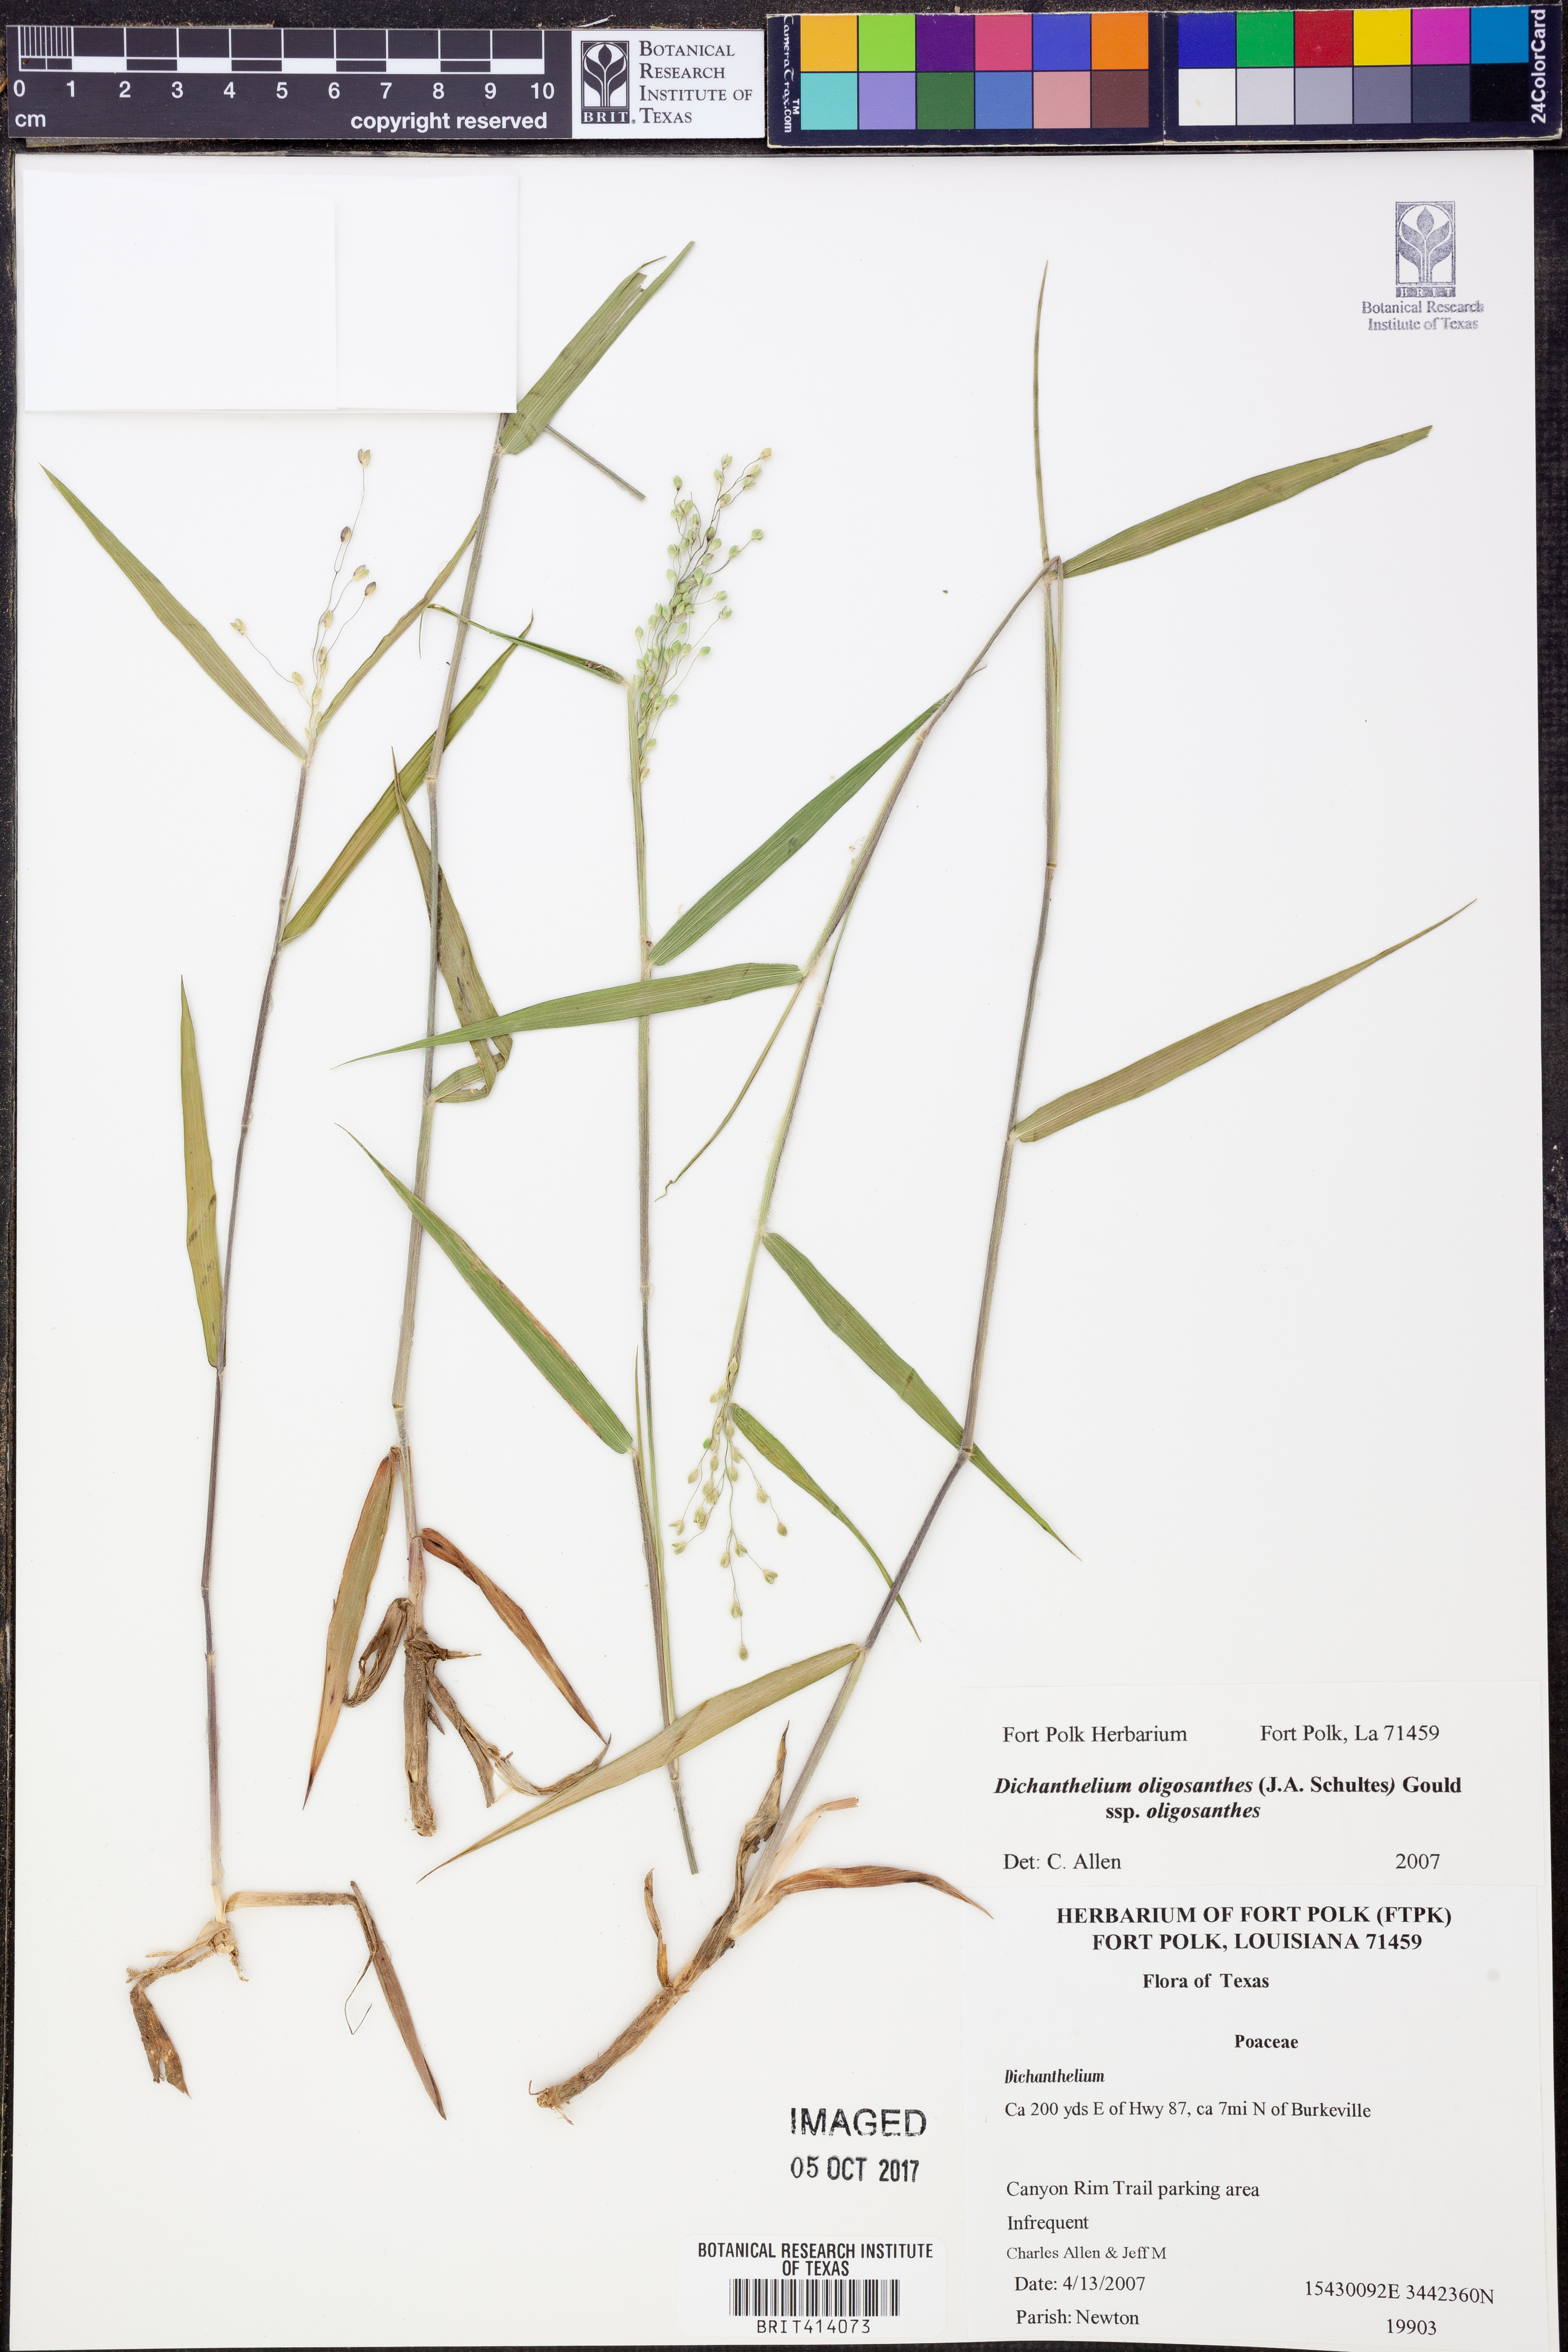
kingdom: Plantae
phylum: Tracheophyta
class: Liliopsida
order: Poales
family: Poaceae
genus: Dichanthelium
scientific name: Dichanthelium oligosanthes
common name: Few-anther obscuregrass
